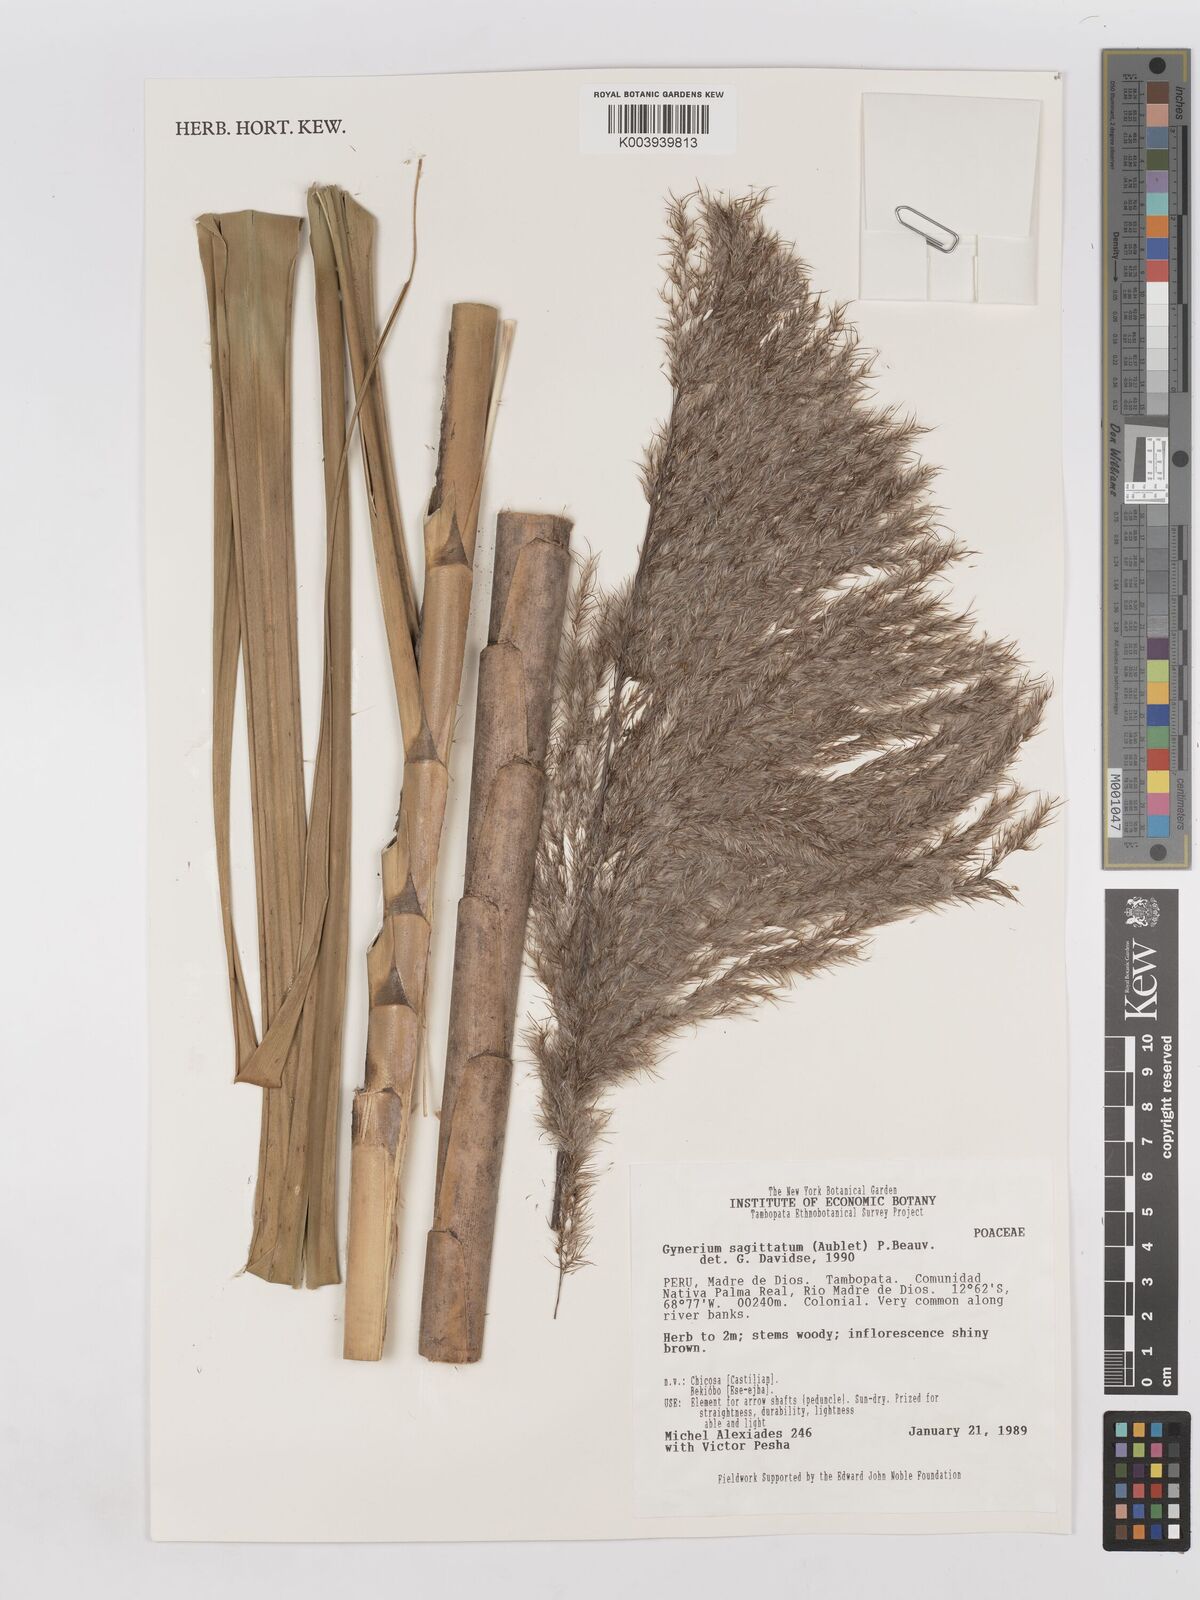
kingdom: Plantae
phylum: Tracheophyta
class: Liliopsida
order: Poales
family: Poaceae
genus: Gynerium
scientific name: Gynerium sagittatum
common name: Wild cane
